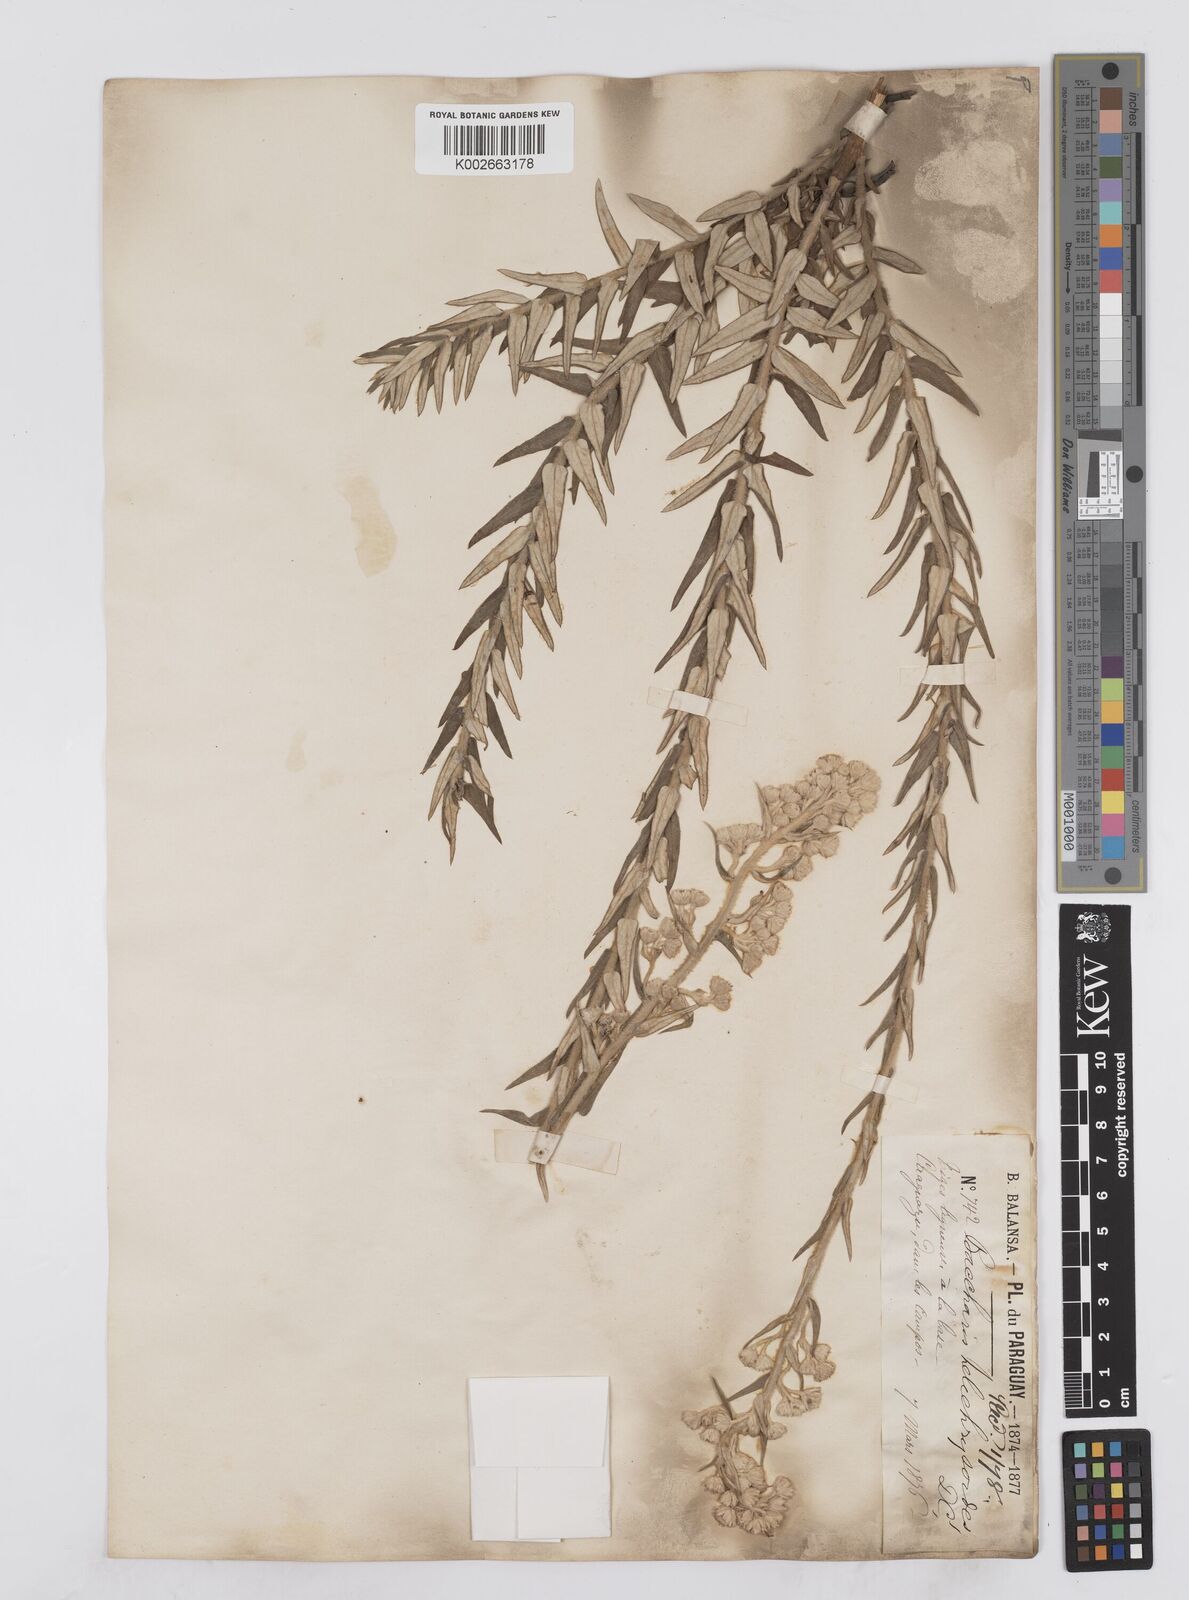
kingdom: Plantae
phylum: Tracheophyta
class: Magnoliopsida
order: Asterales
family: Asteraceae
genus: Baccharis
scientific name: Baccharis helichrysoides
